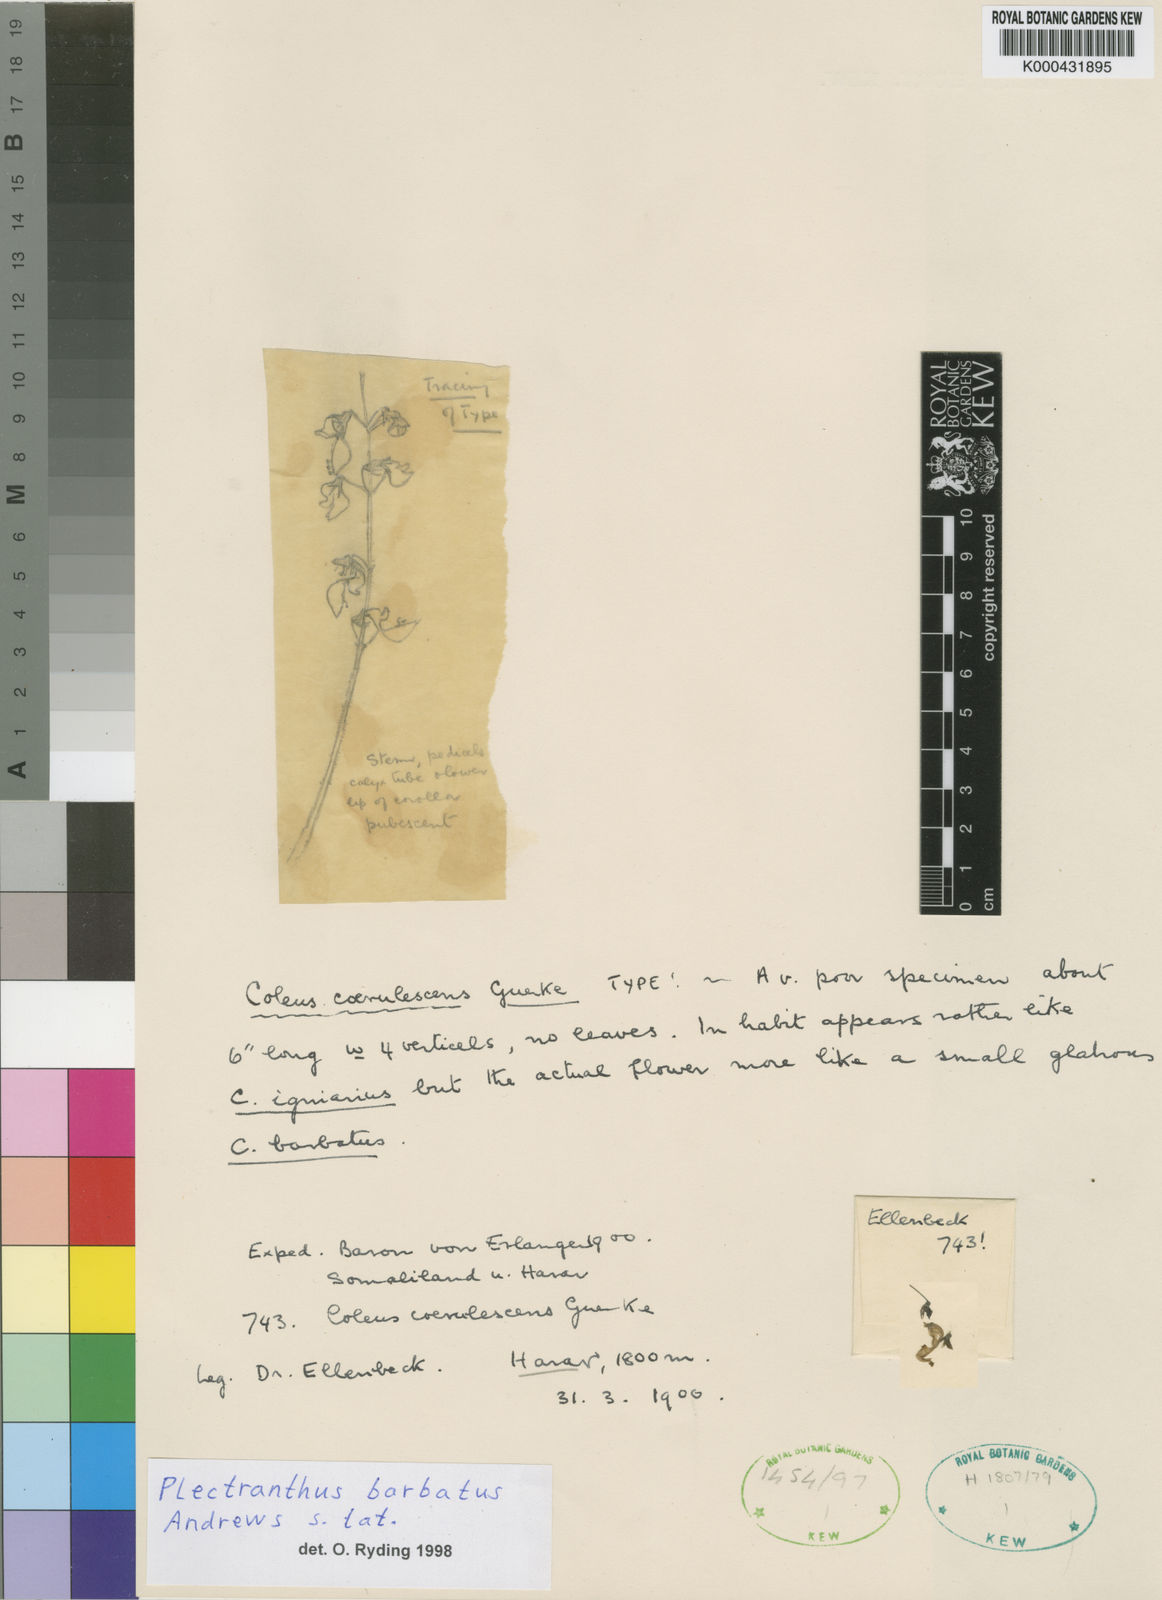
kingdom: Plantae
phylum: Tracheophyta
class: Magnoliopsida
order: Lamiales
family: Lamiaceae
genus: Coleus
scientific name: Coleus barbatus
